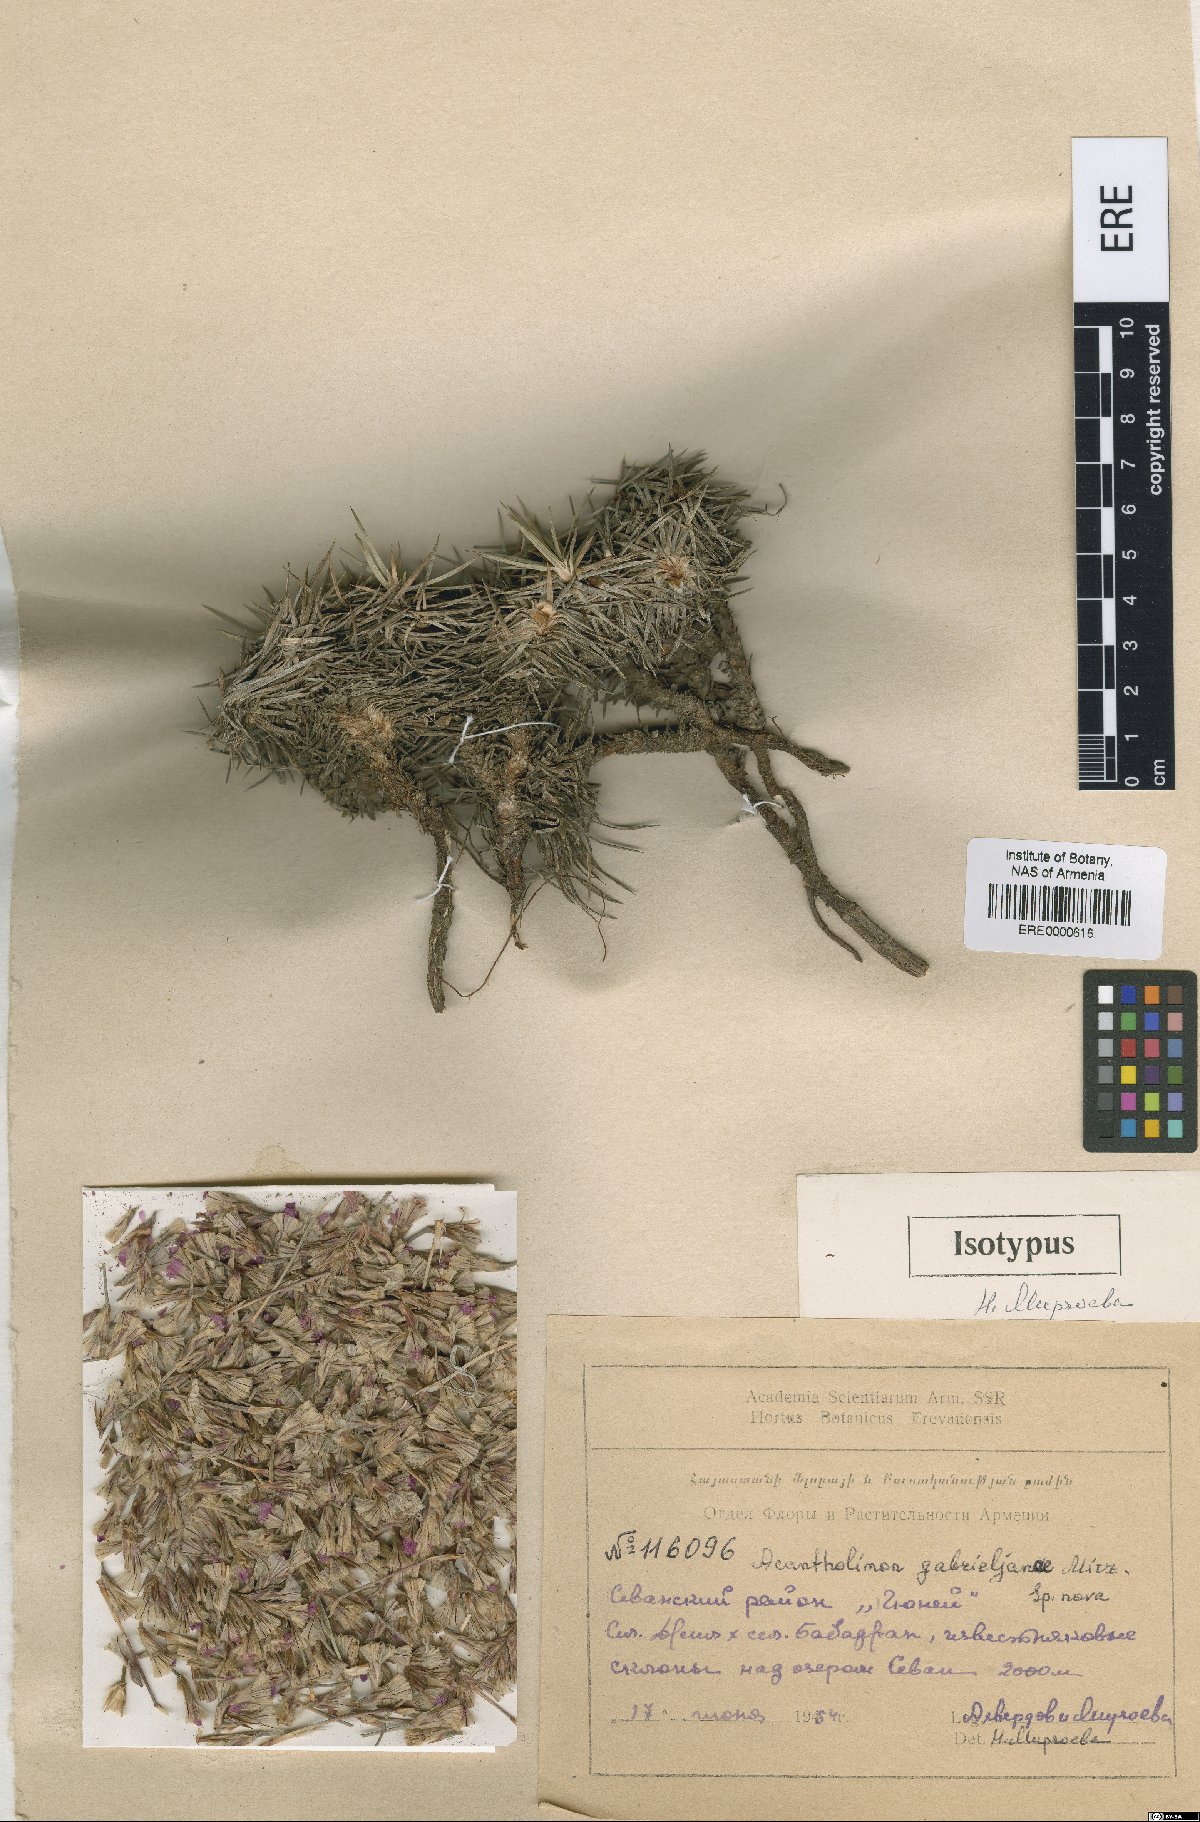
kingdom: Plantae
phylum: Tracheophyta
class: Magnoliopsida
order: Caryophyllales
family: Plumbaginaceae
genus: Acantholimon
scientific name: Acantholimon gabrieljaniae
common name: Gabrielyan's prickly-thrift
